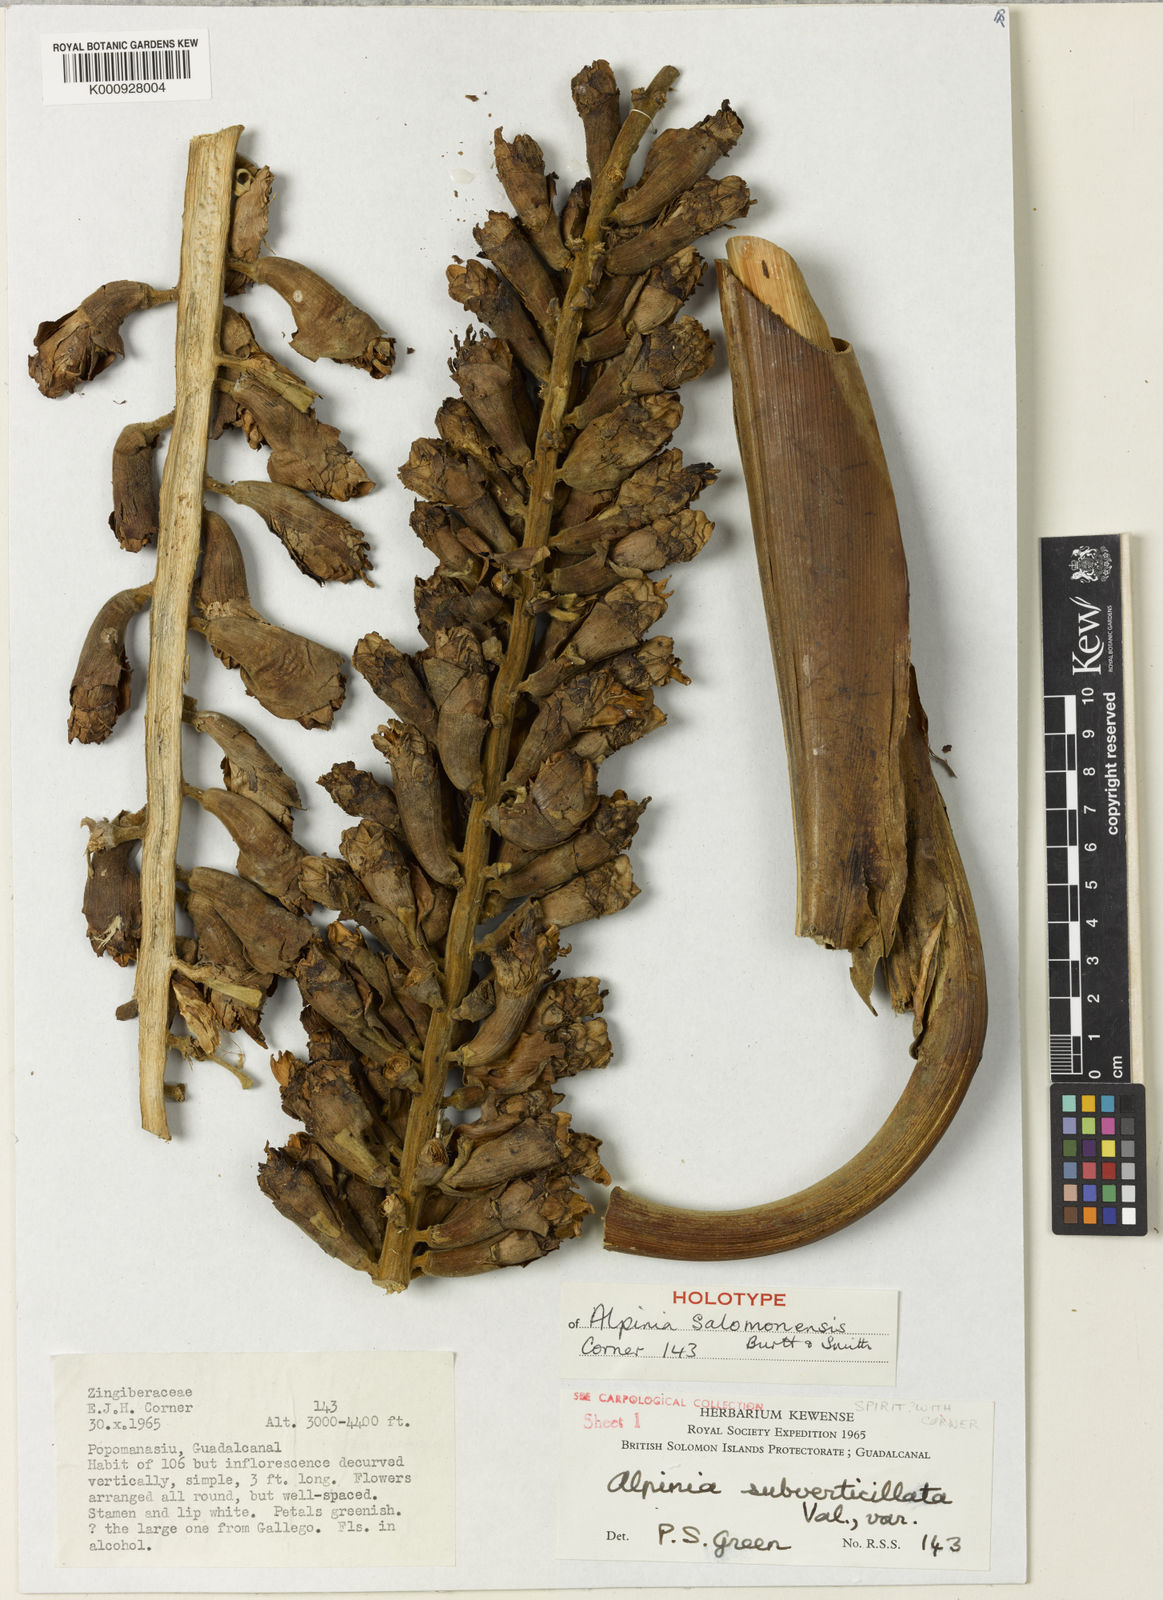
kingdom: Plantae
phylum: Tracheophyta
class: Liliopsida
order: Zingiberales
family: Zingiberaceae
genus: Alpinia
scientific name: Alpinia salomonensis
